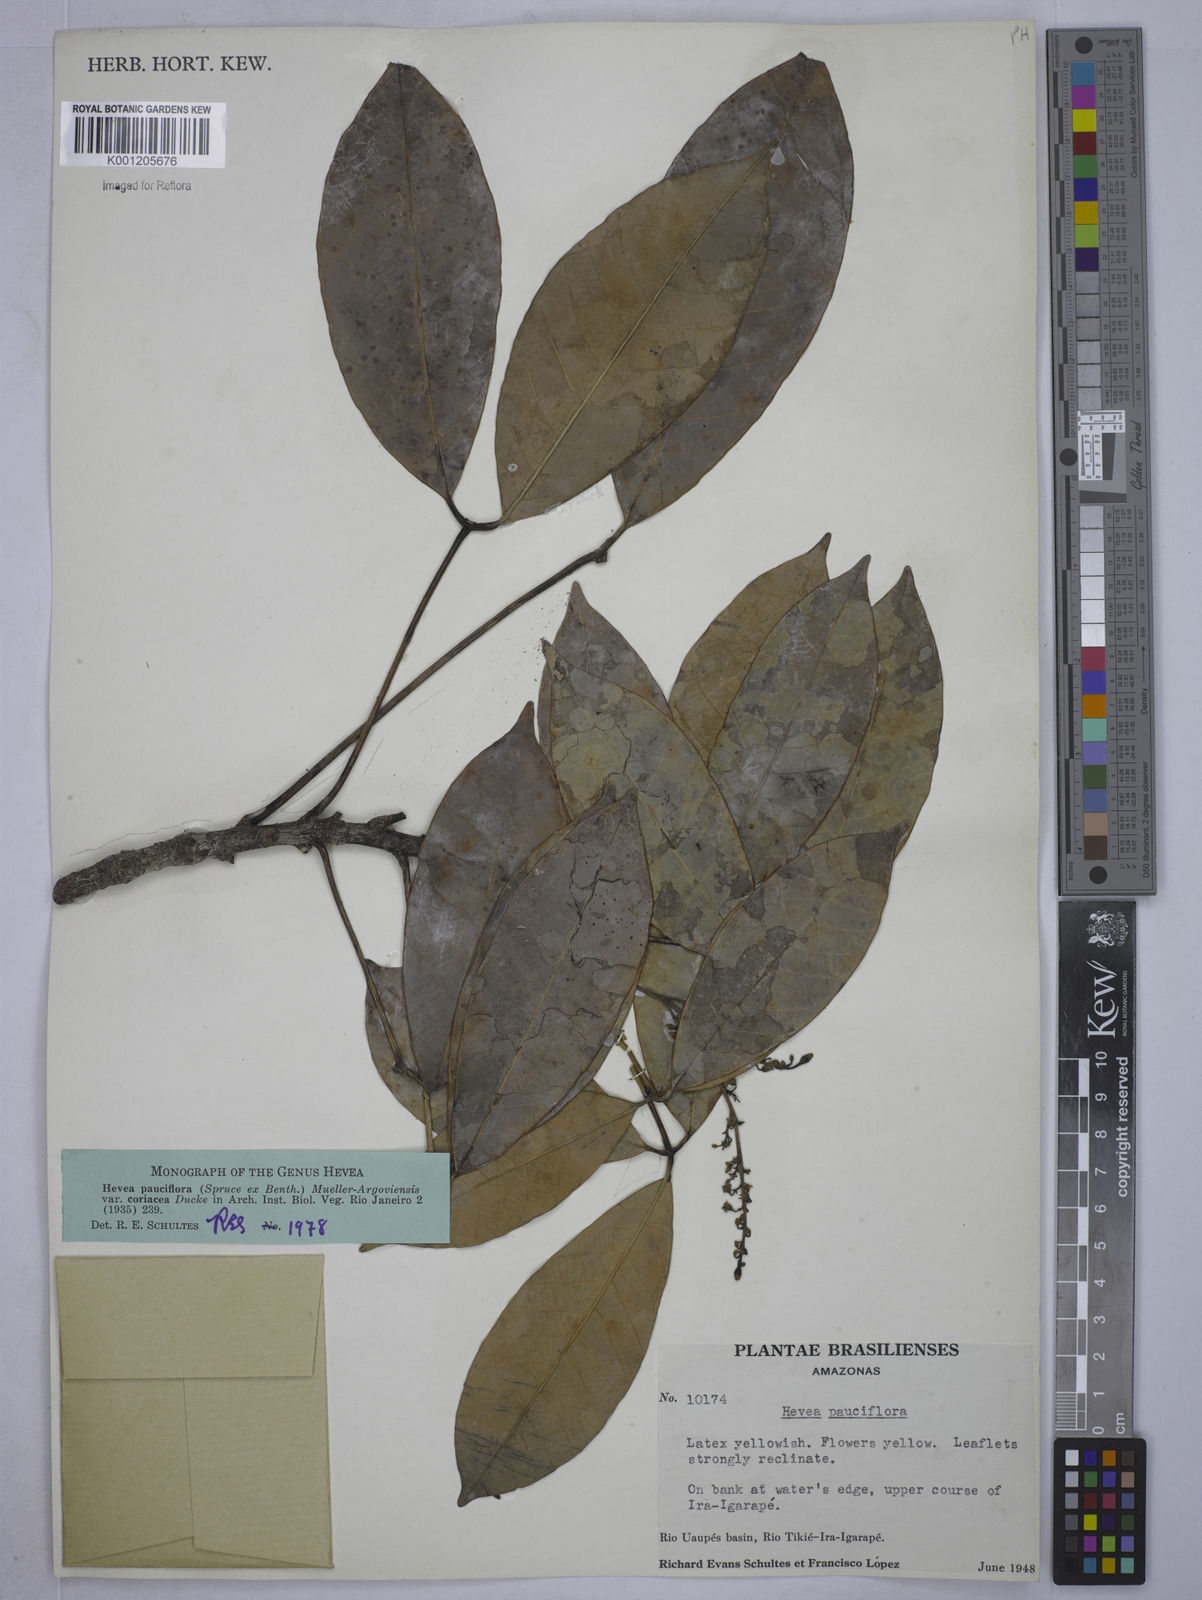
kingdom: Plantae
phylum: Tracheophyta
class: Magnoliopsida
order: Malpighiales
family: Euphorbiaceae
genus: Hevea
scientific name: Hevea pauciflora
